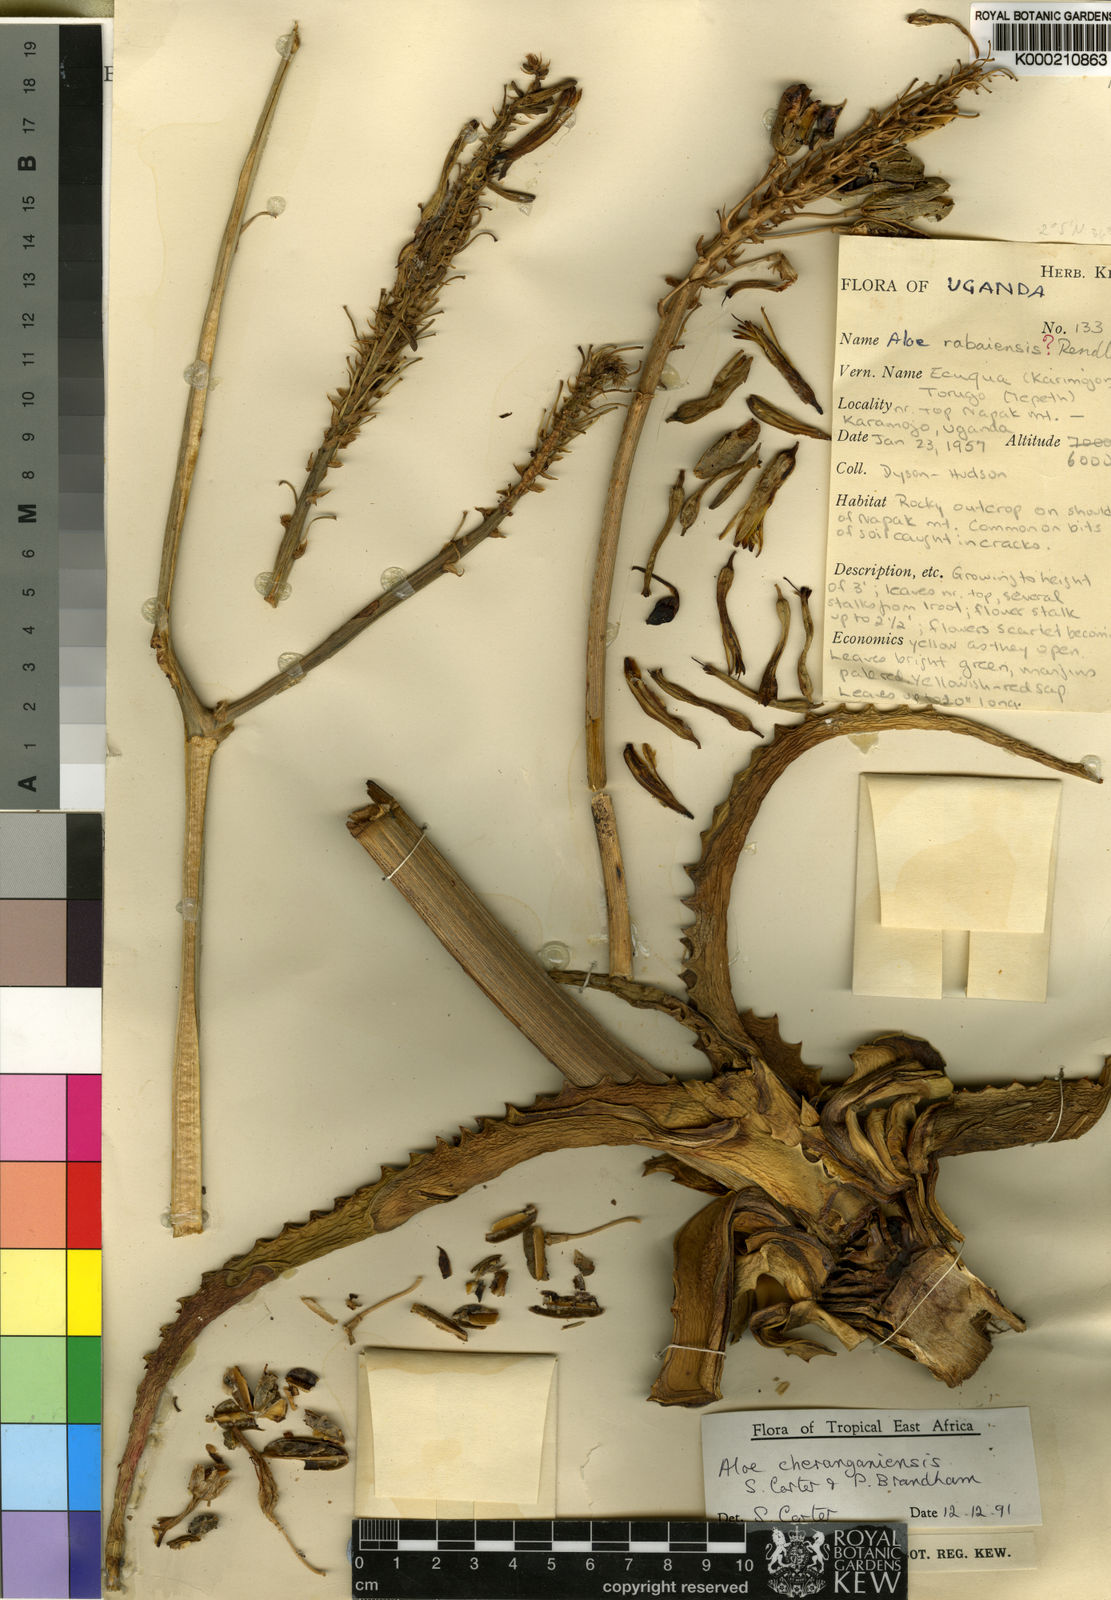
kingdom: Plantae
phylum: Tracheophyta
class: Liliopsida
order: Asparagales
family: Asphodelaceae
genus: Aloe
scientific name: Aloe cheranganiensis
